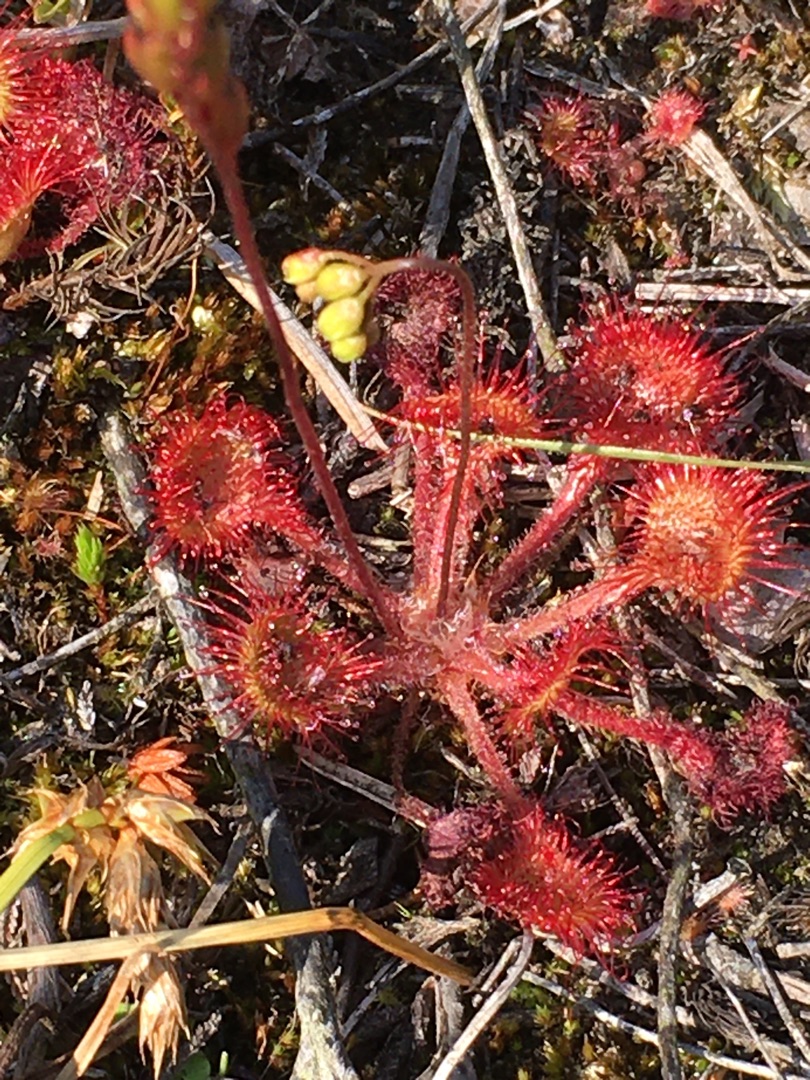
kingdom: Plantae
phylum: Tracheophyta
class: Magnoliopsida
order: Caryophyllales
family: Droseraceae
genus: Drosera
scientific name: Drosera rotundifolia
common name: Rundbladet soldug
